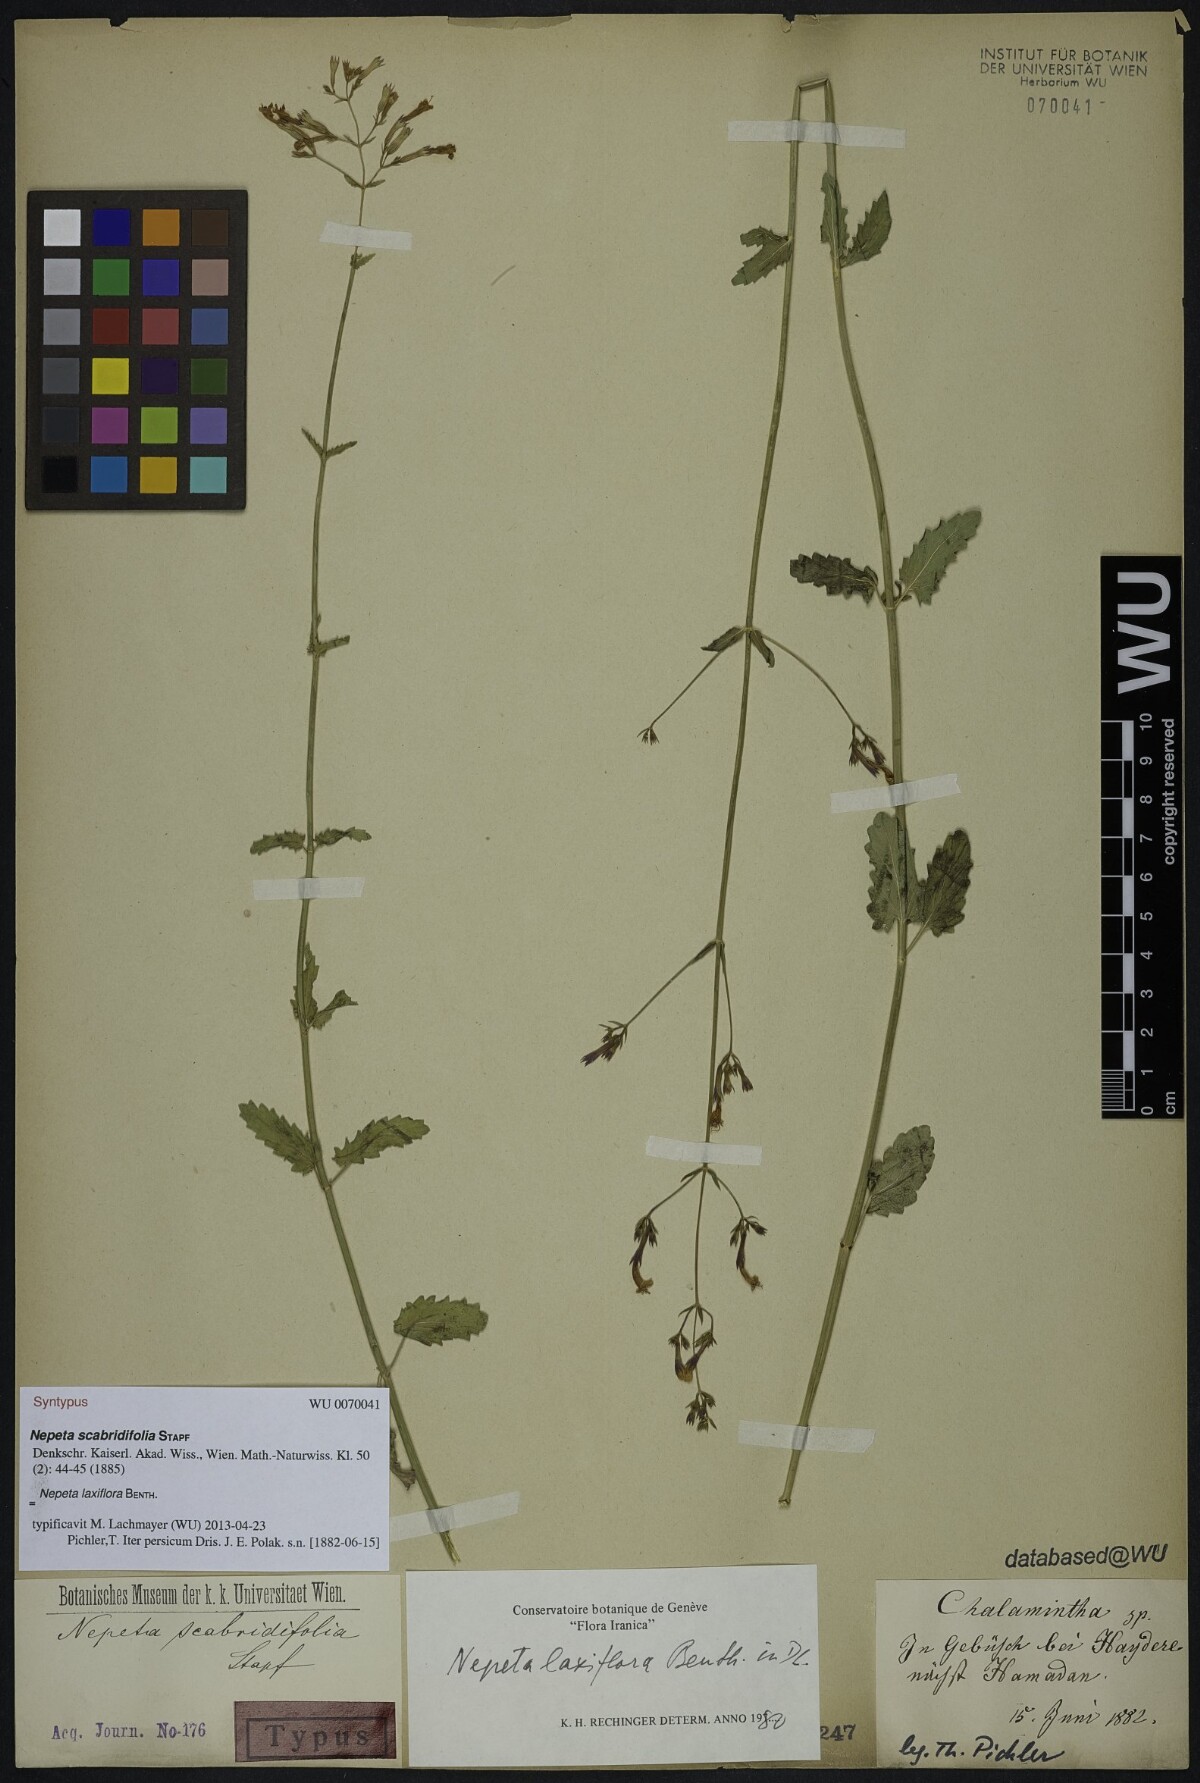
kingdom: Plantae
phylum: Tracheophyta
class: Magnoliopsida
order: Lamiales
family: Lamiaceae
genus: Nepeta
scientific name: Nepeta laxiflora
